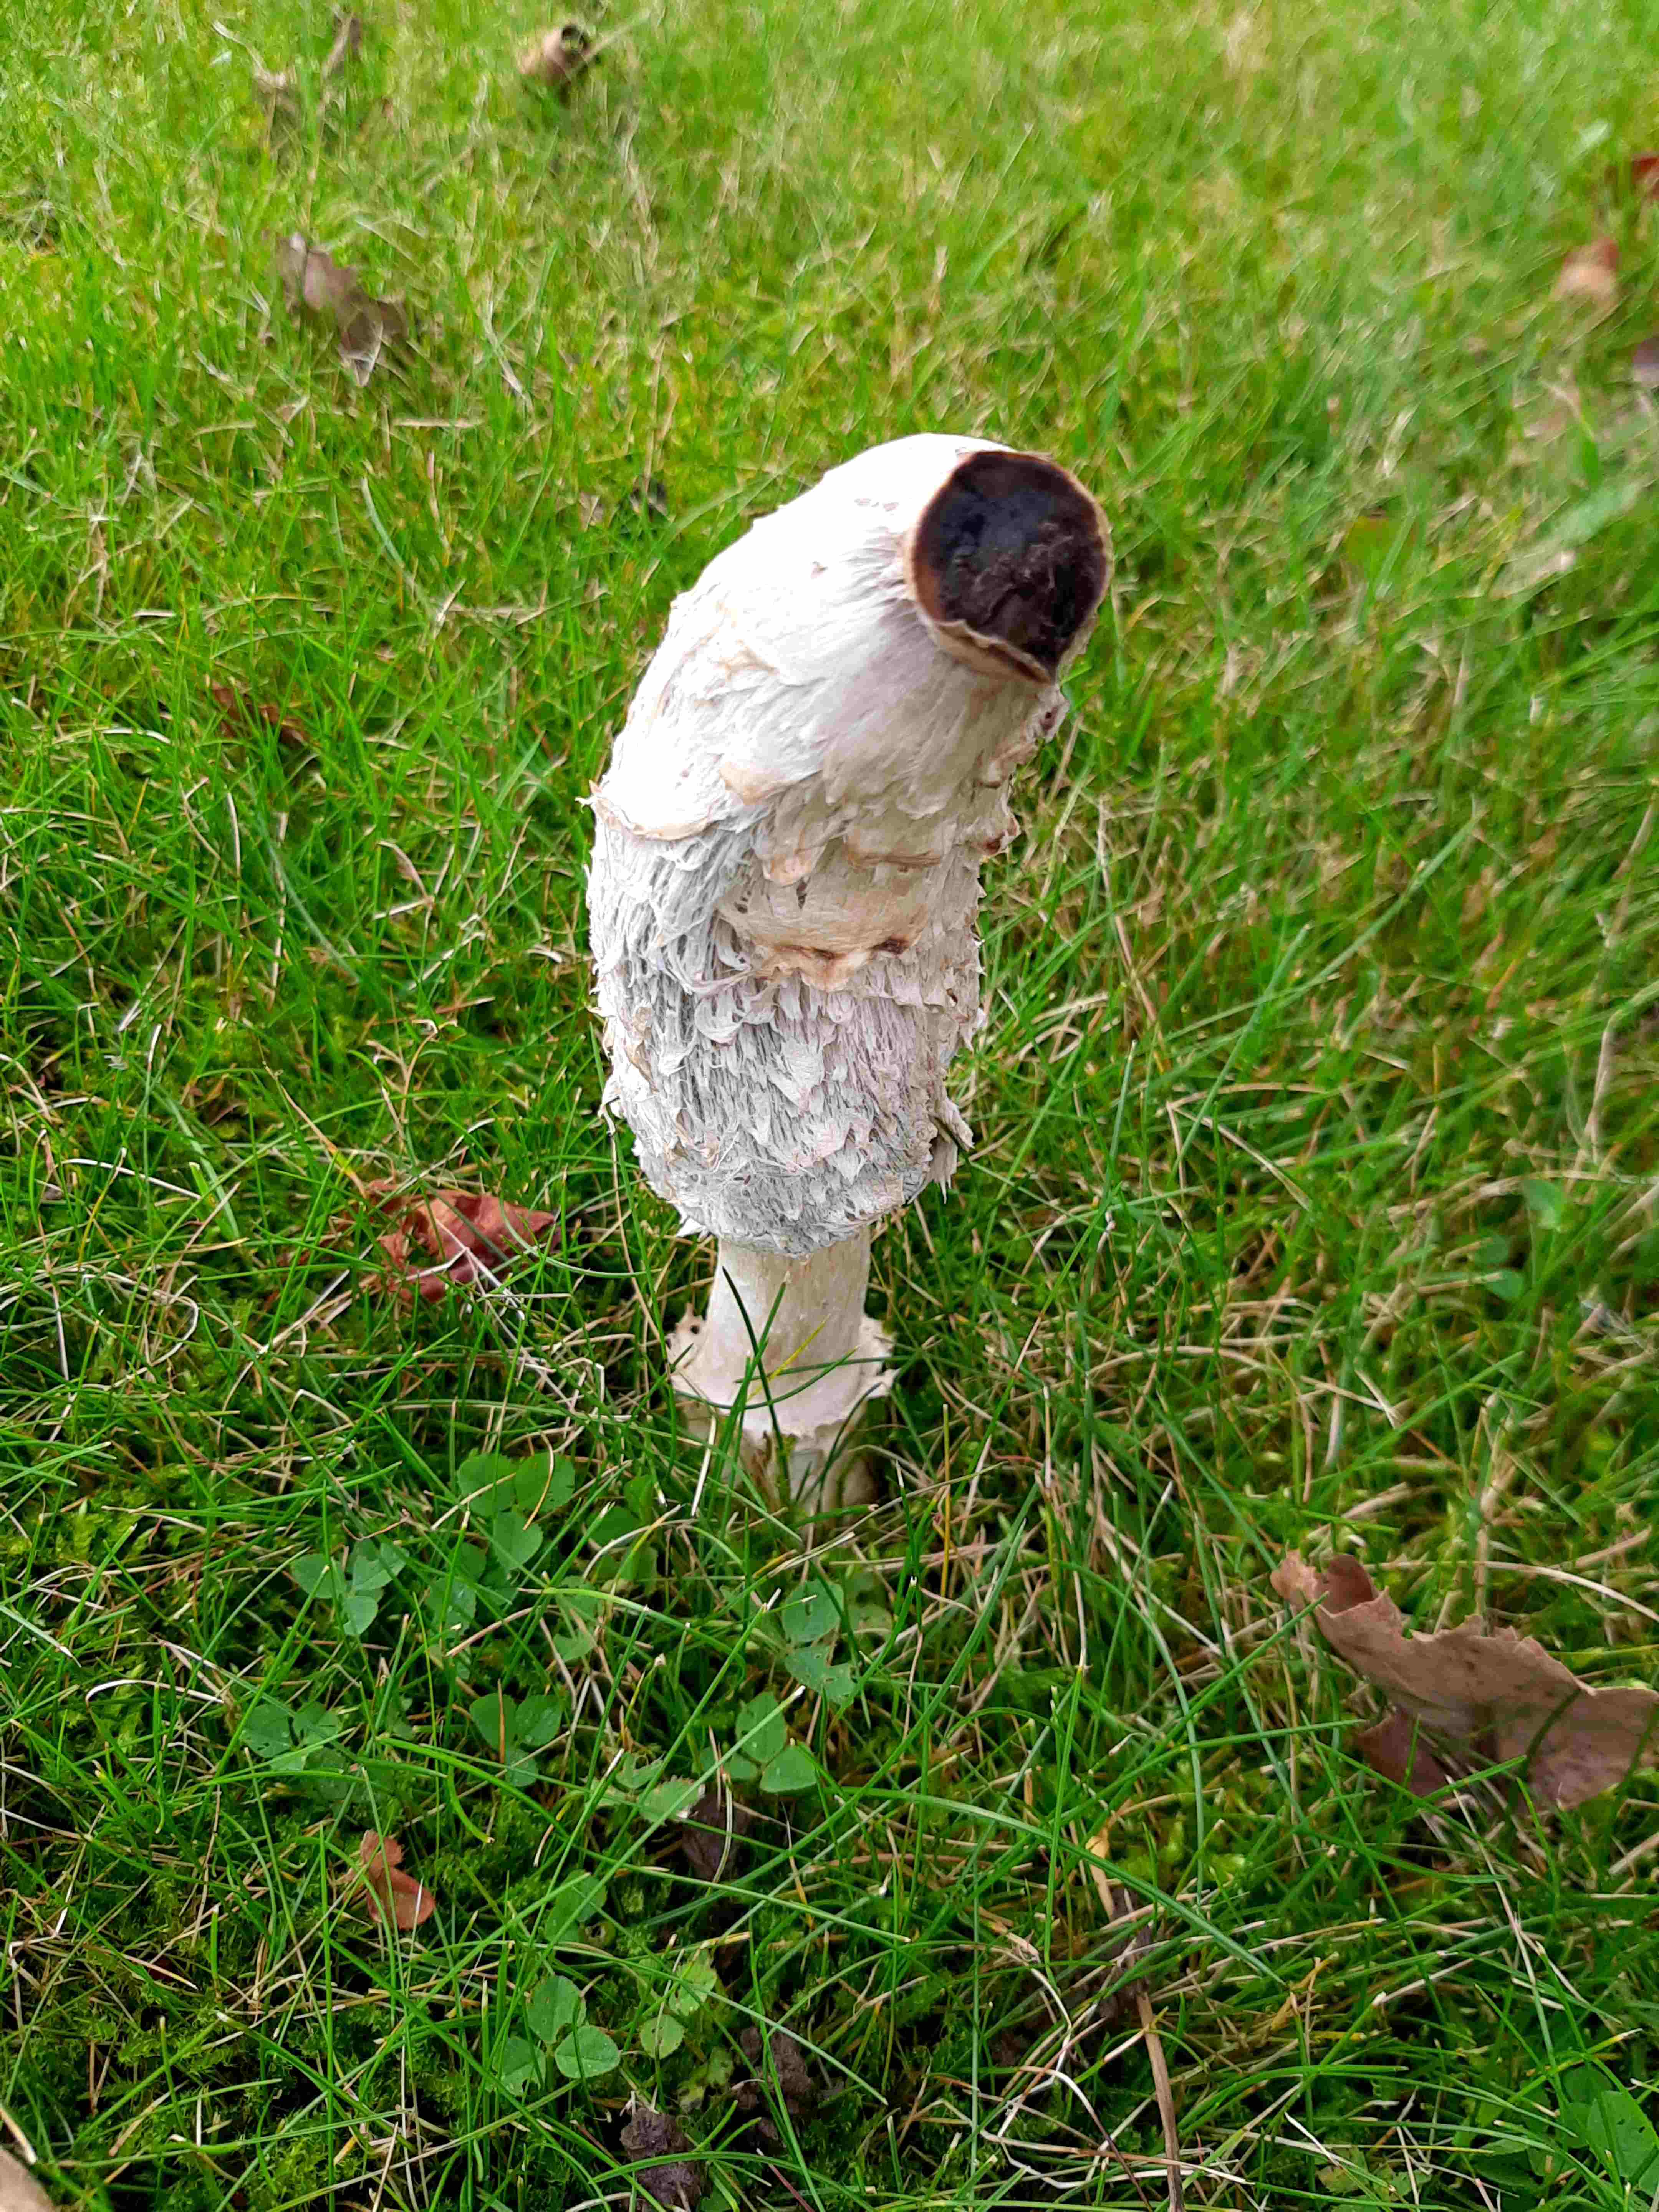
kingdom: Fungi
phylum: Basidiomycota
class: Agaricomycetes
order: Agaricales
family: Agaricaceae
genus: Coprinus
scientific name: Coprinus comatus
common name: stor parykhat
